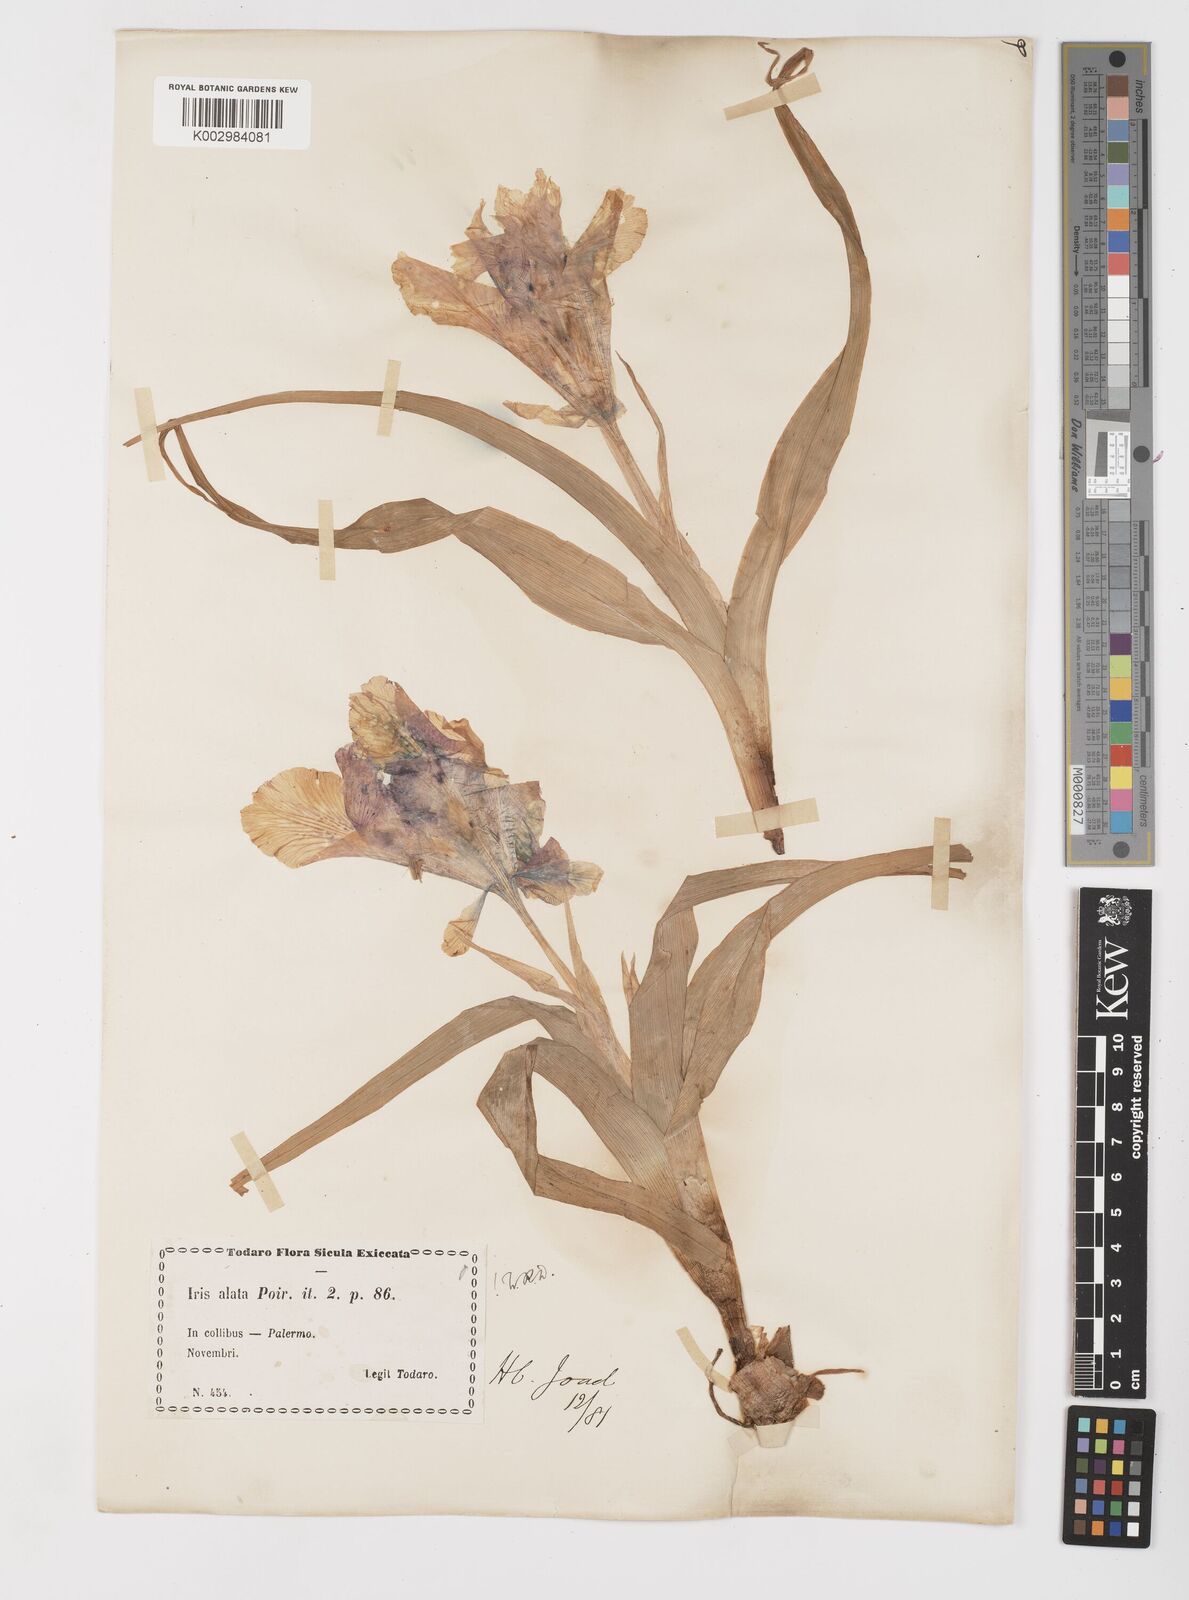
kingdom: Plantae
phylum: Tracheophyta
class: Liliopsida
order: Asparagales
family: Iridaceae
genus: Iris
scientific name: Iris planifolia
